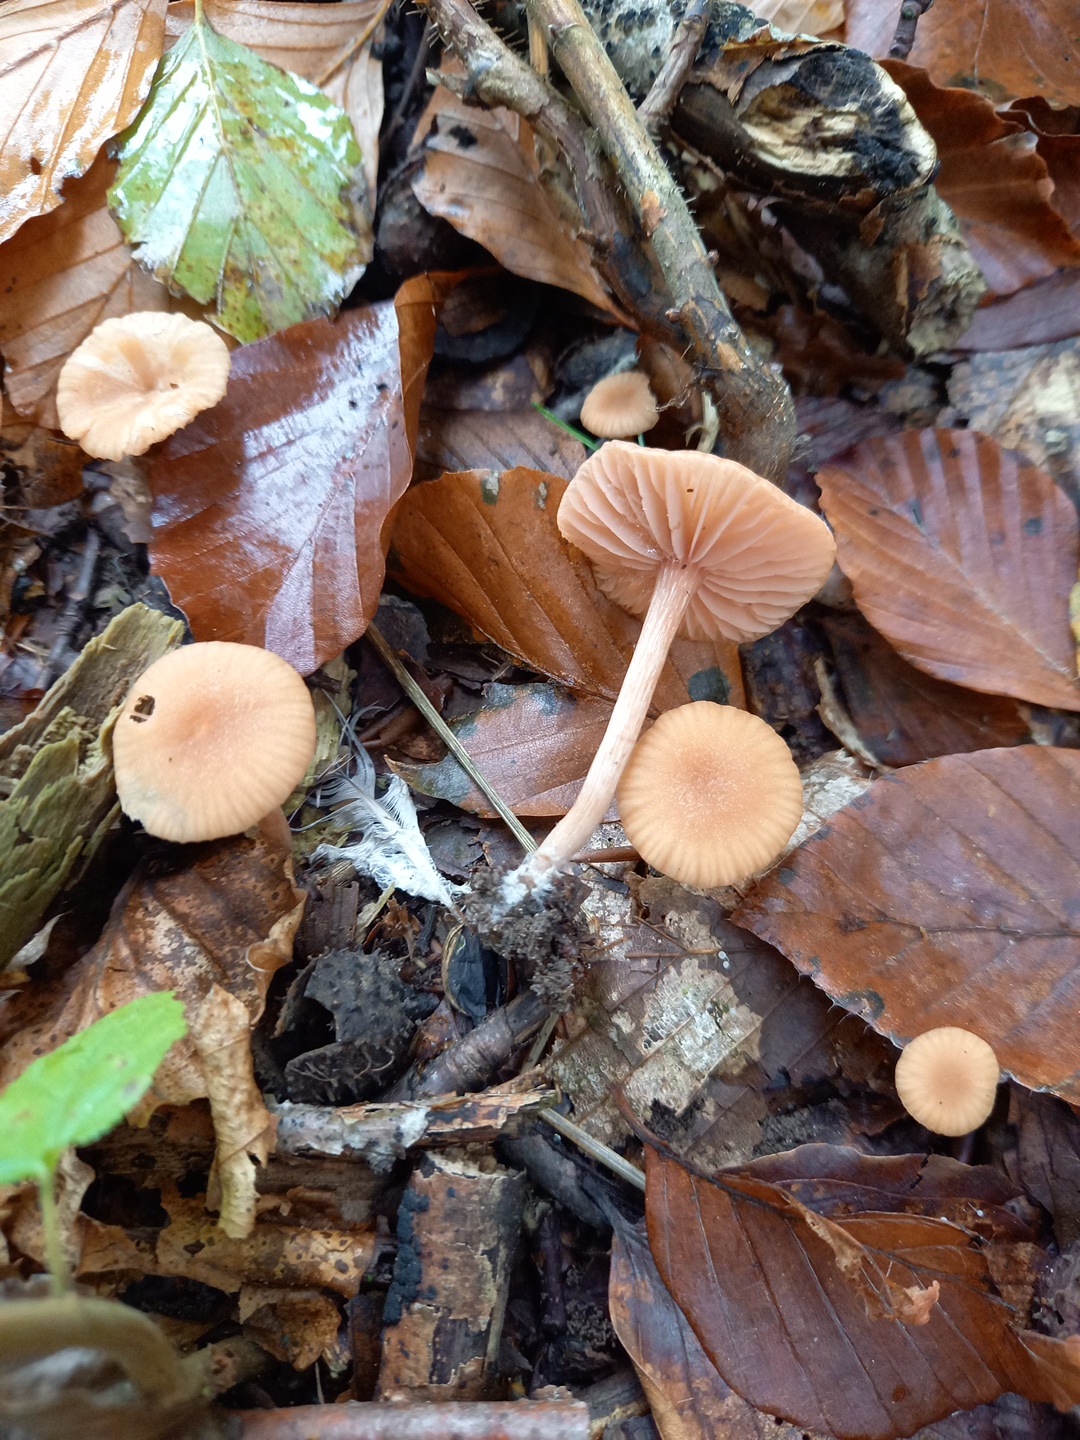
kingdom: Fungi
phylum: Basidiomycota
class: Agaricomycetes
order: Agaricales
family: Hydnangiaceae
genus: Laccaria
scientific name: Laccaria laccata
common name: rød ametysthat
